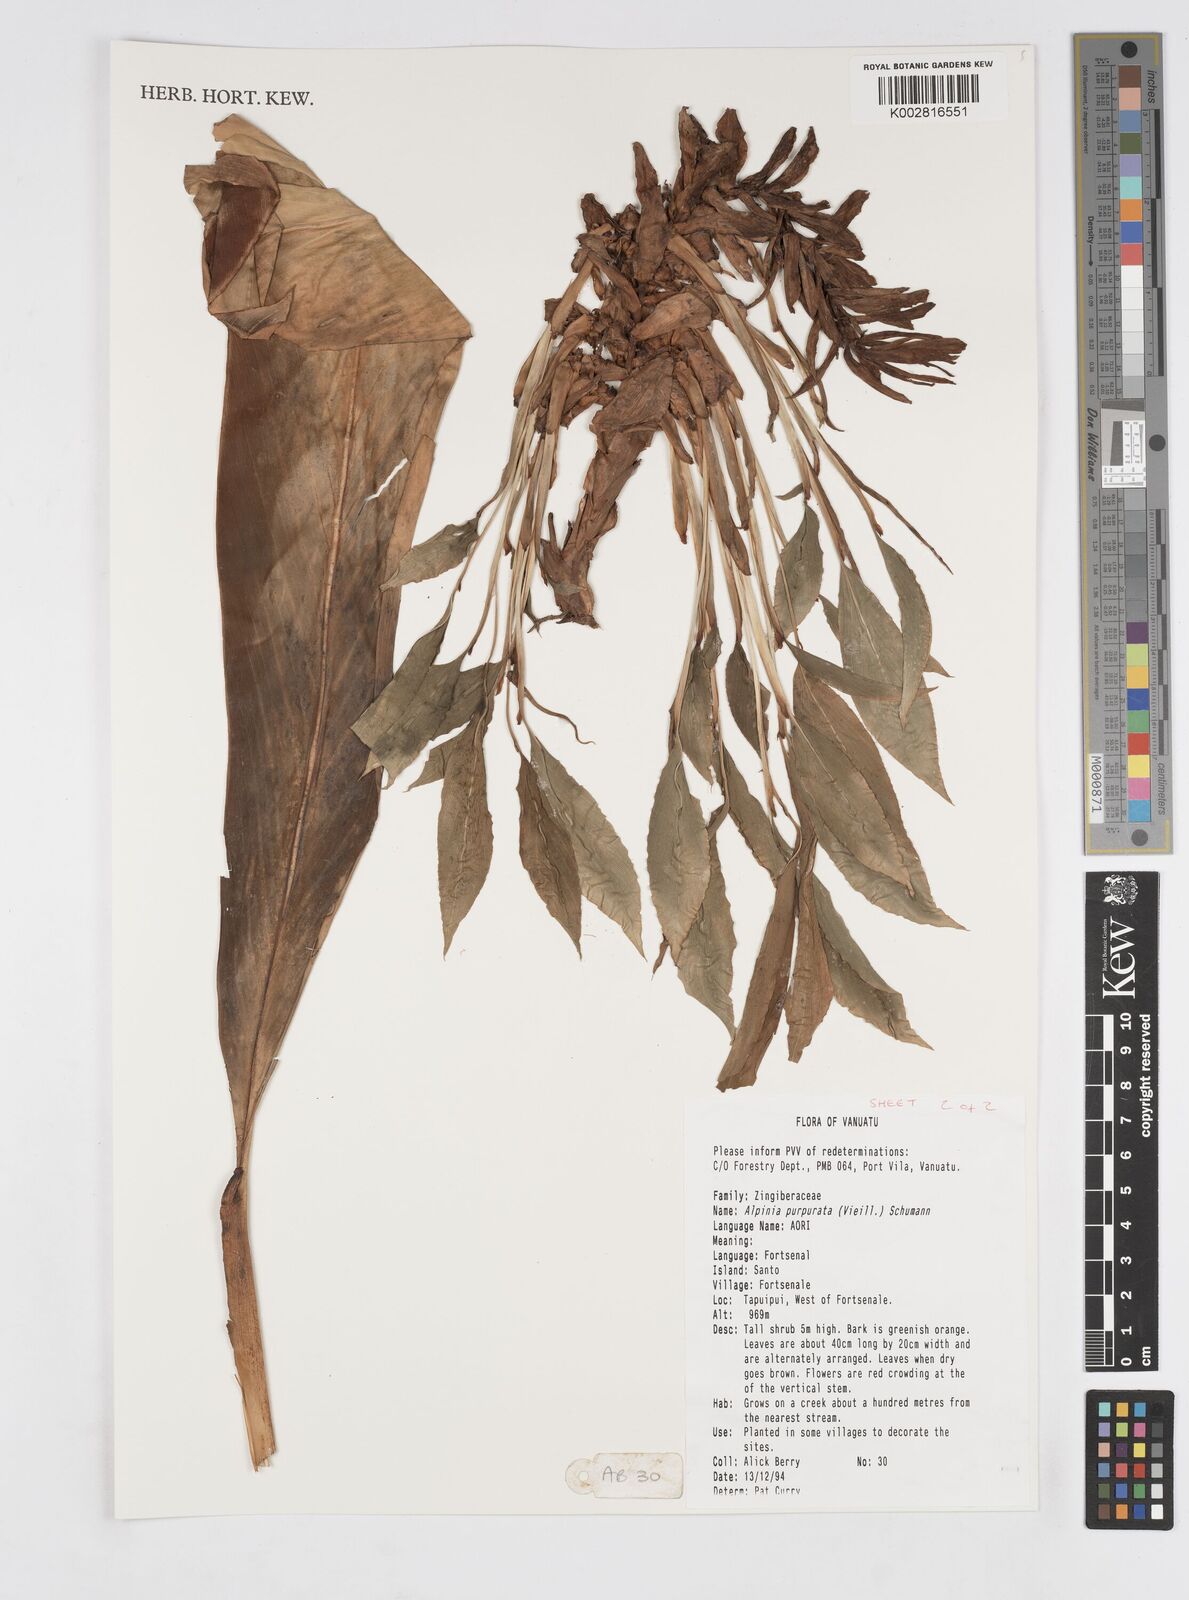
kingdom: Plantae
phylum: Tracheophyta
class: Liliopsida
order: Zingiberales
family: Zingiberaceae
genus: Alpinia
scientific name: Alpinia purpurata
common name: Red ginger
